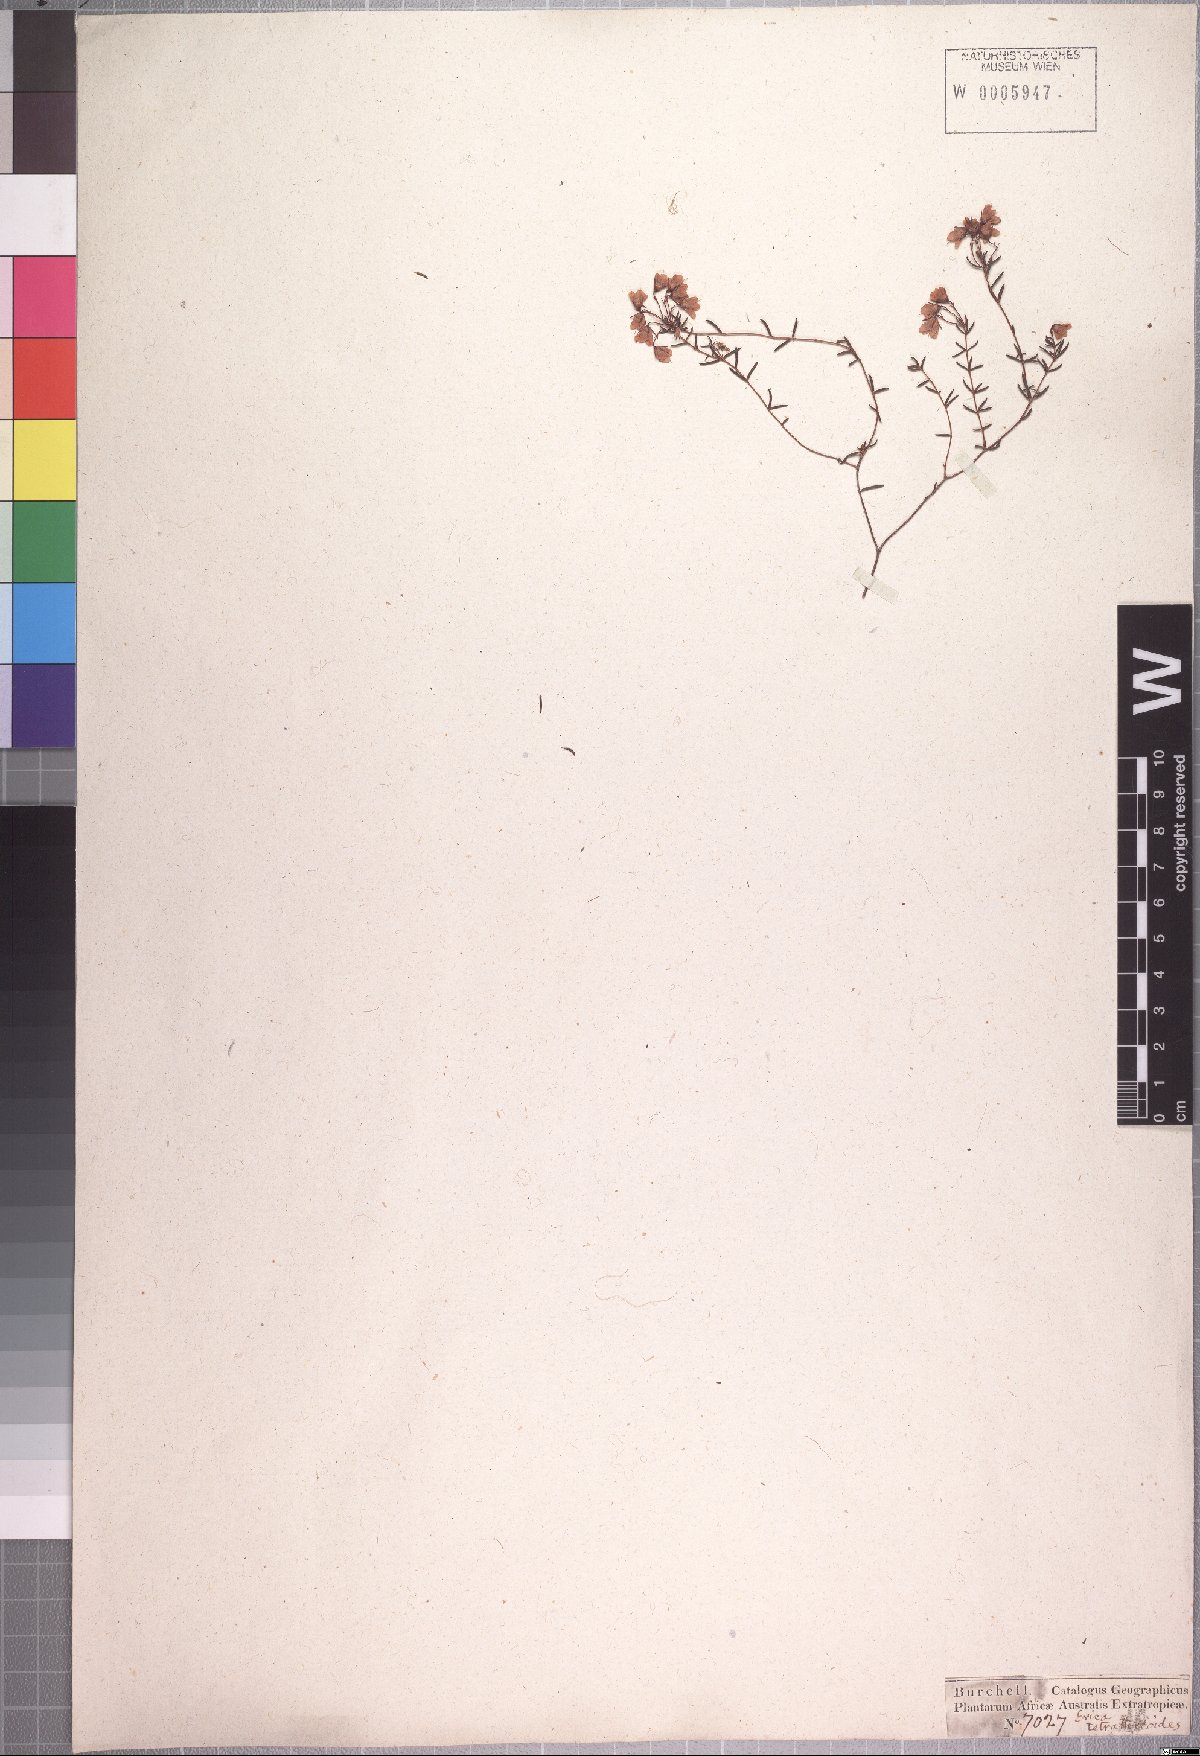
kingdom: Plantae
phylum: Tracheophyta
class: Magnoliopsida
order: Ericales
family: Ericaceae
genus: Erica
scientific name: Erica tetrathecoides
